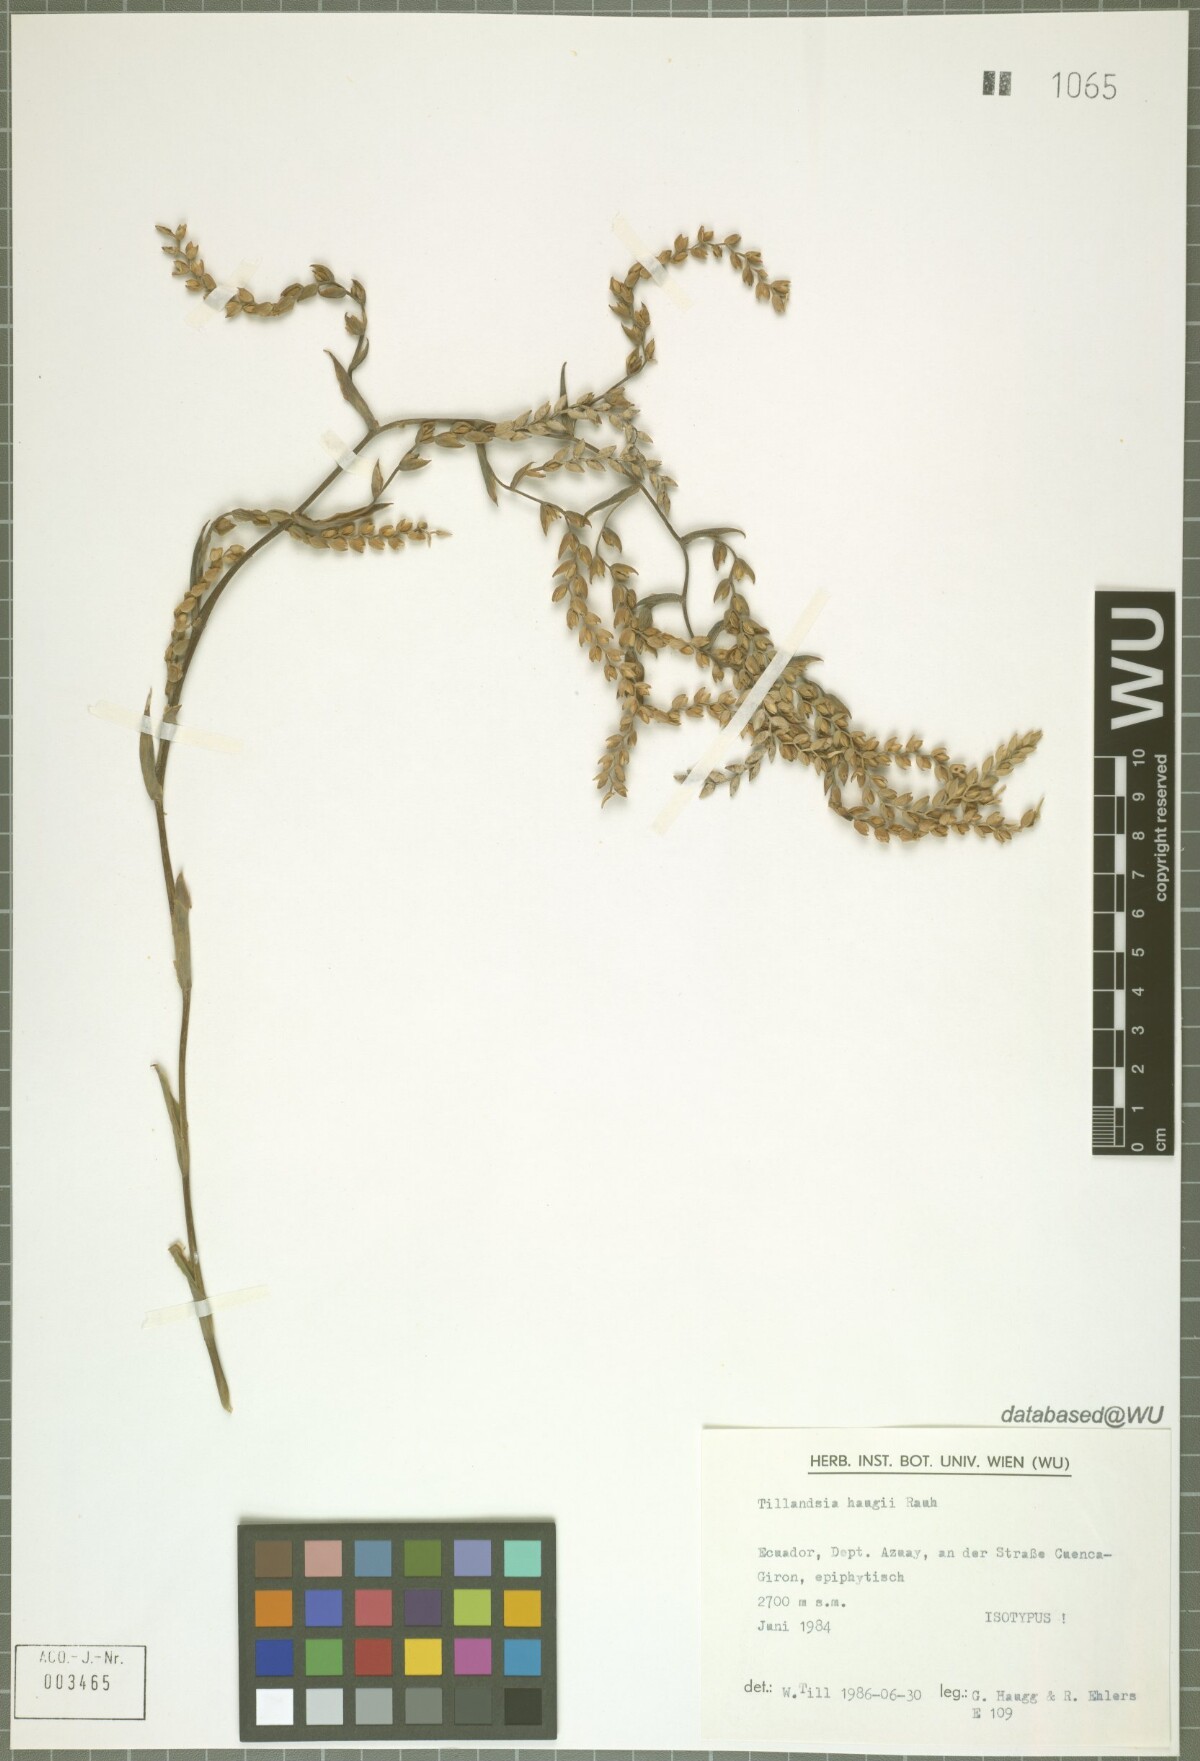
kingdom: Plantae
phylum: Tracheophyta
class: Liliopsida
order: Poales
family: Bromeliaceae
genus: Racinaea
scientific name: Racinaea hauggiae
